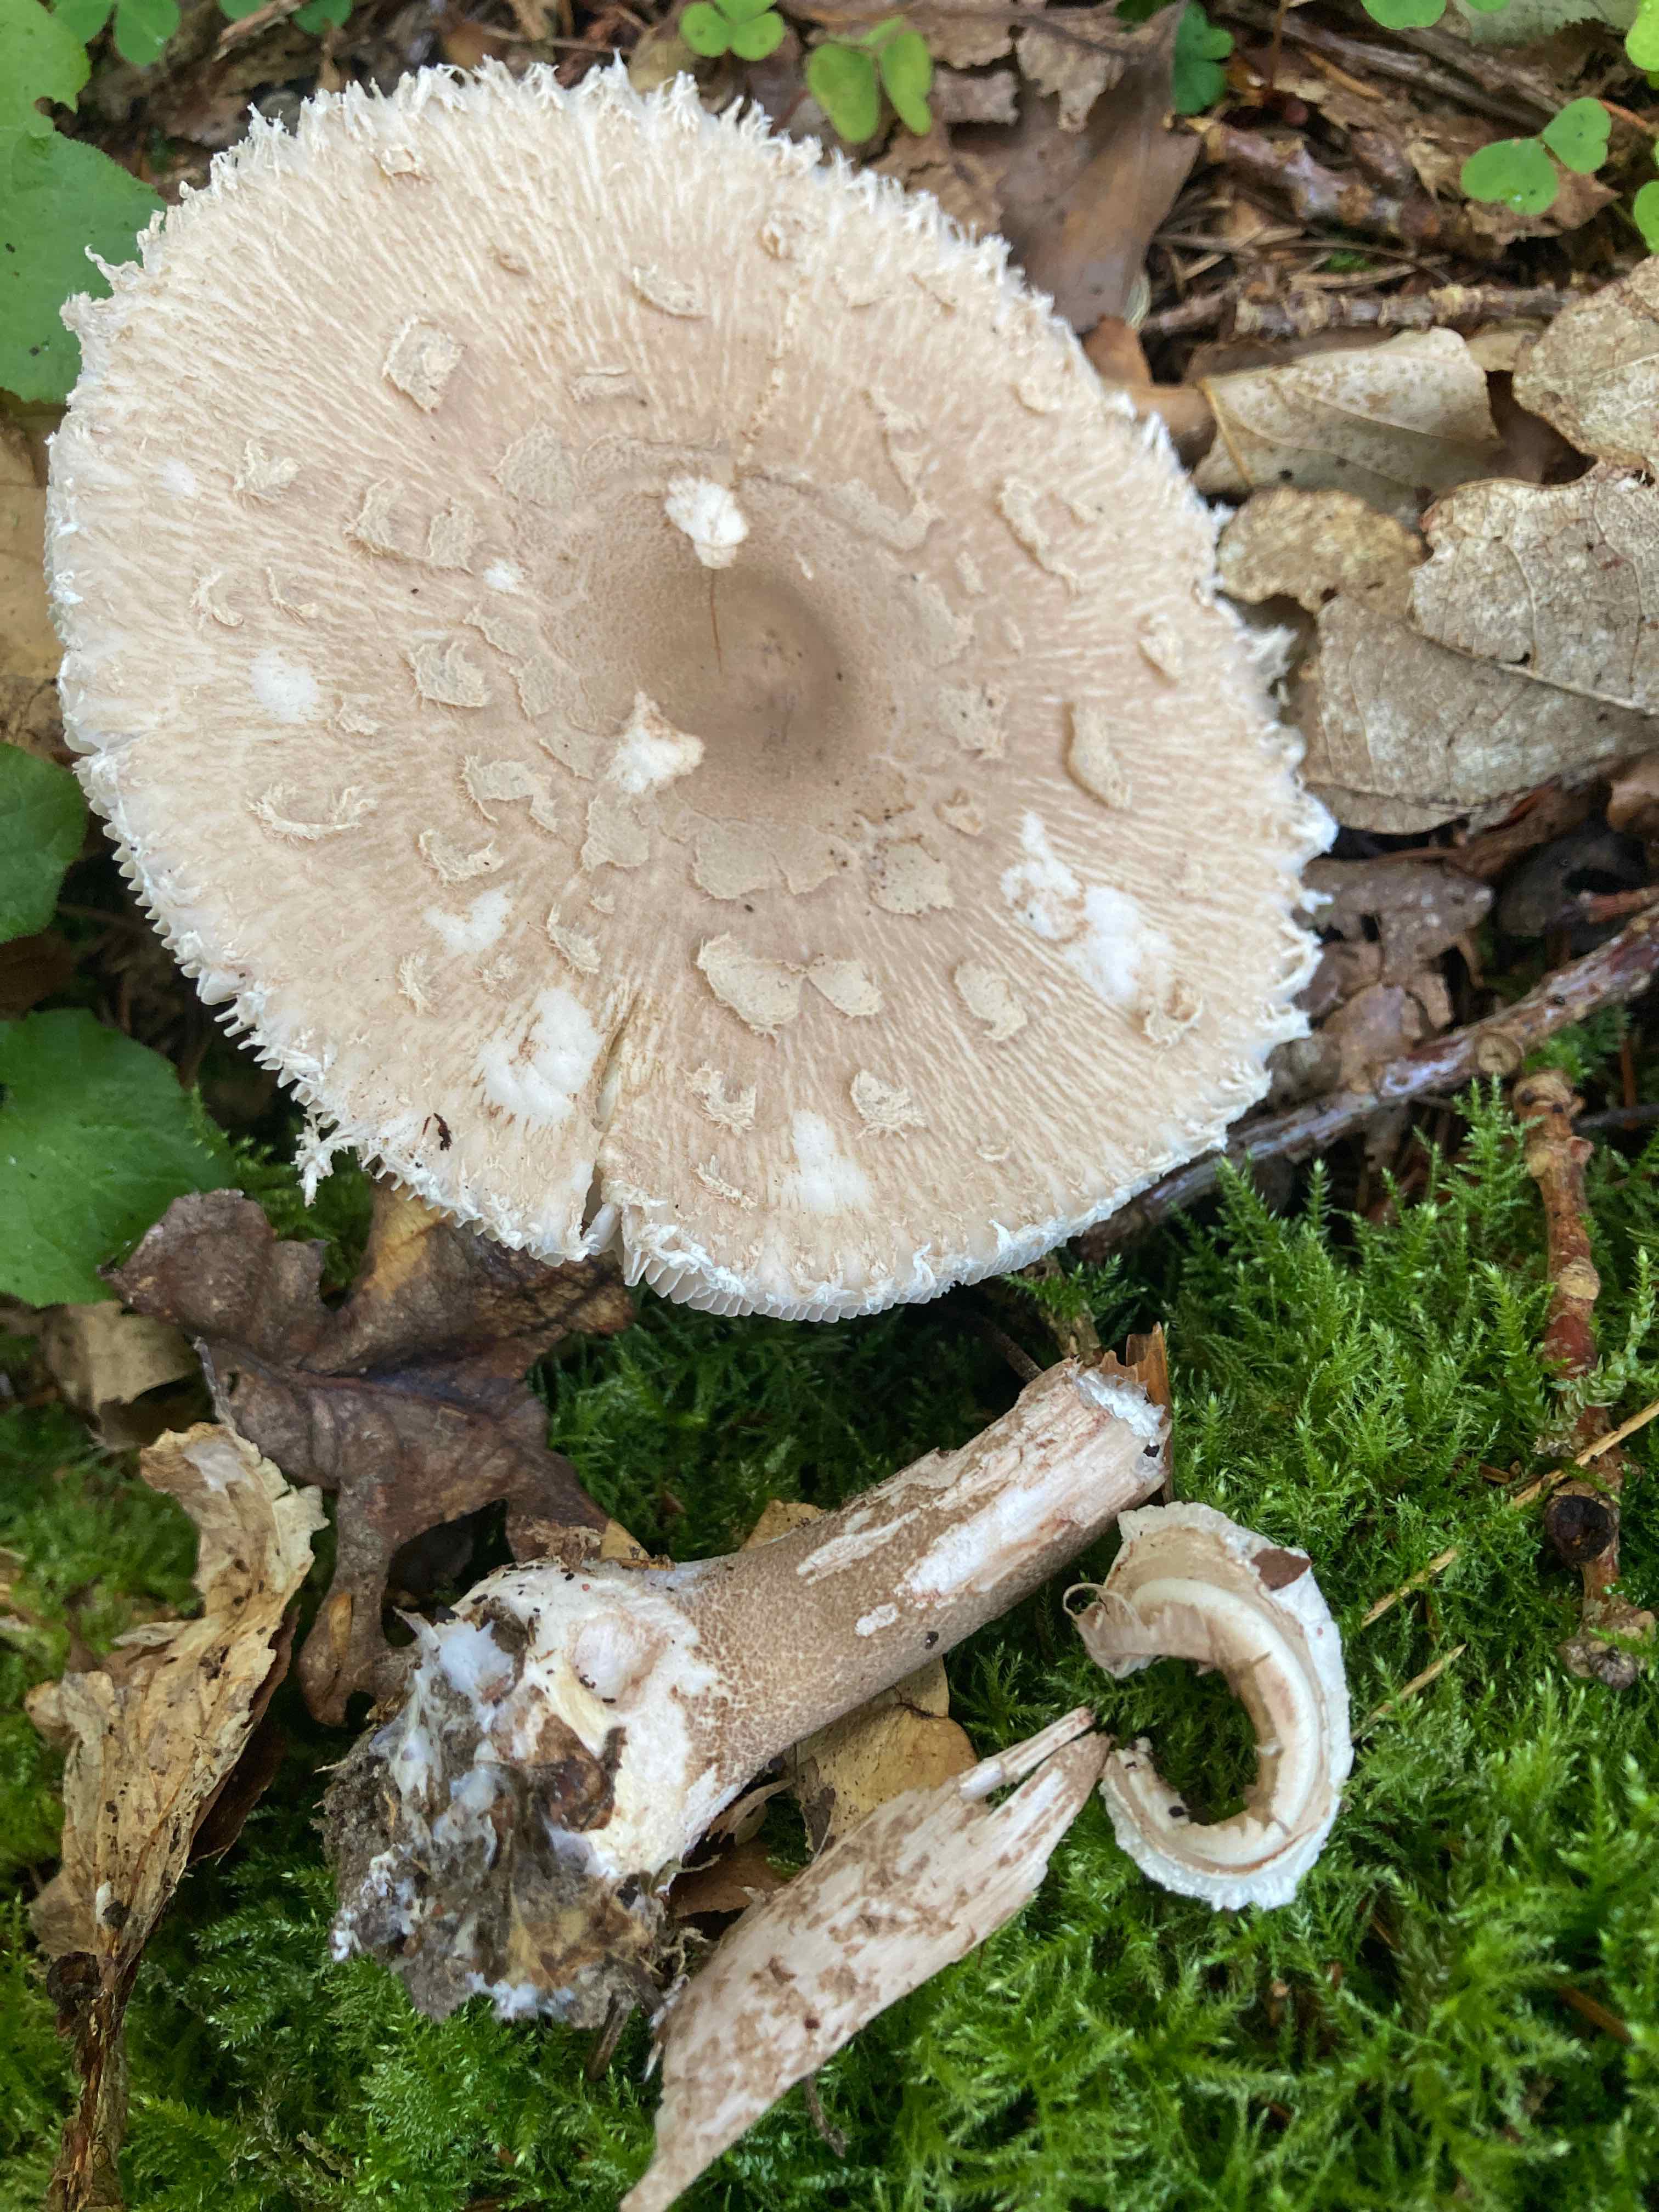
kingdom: Fungi
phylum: Basidiomycota
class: Agaricomycetes
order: Agaricales
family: Agaricaceae
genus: Macrolepiota
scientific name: Macrolepiota mastoidea
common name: puklet kæmpeparasolhat
